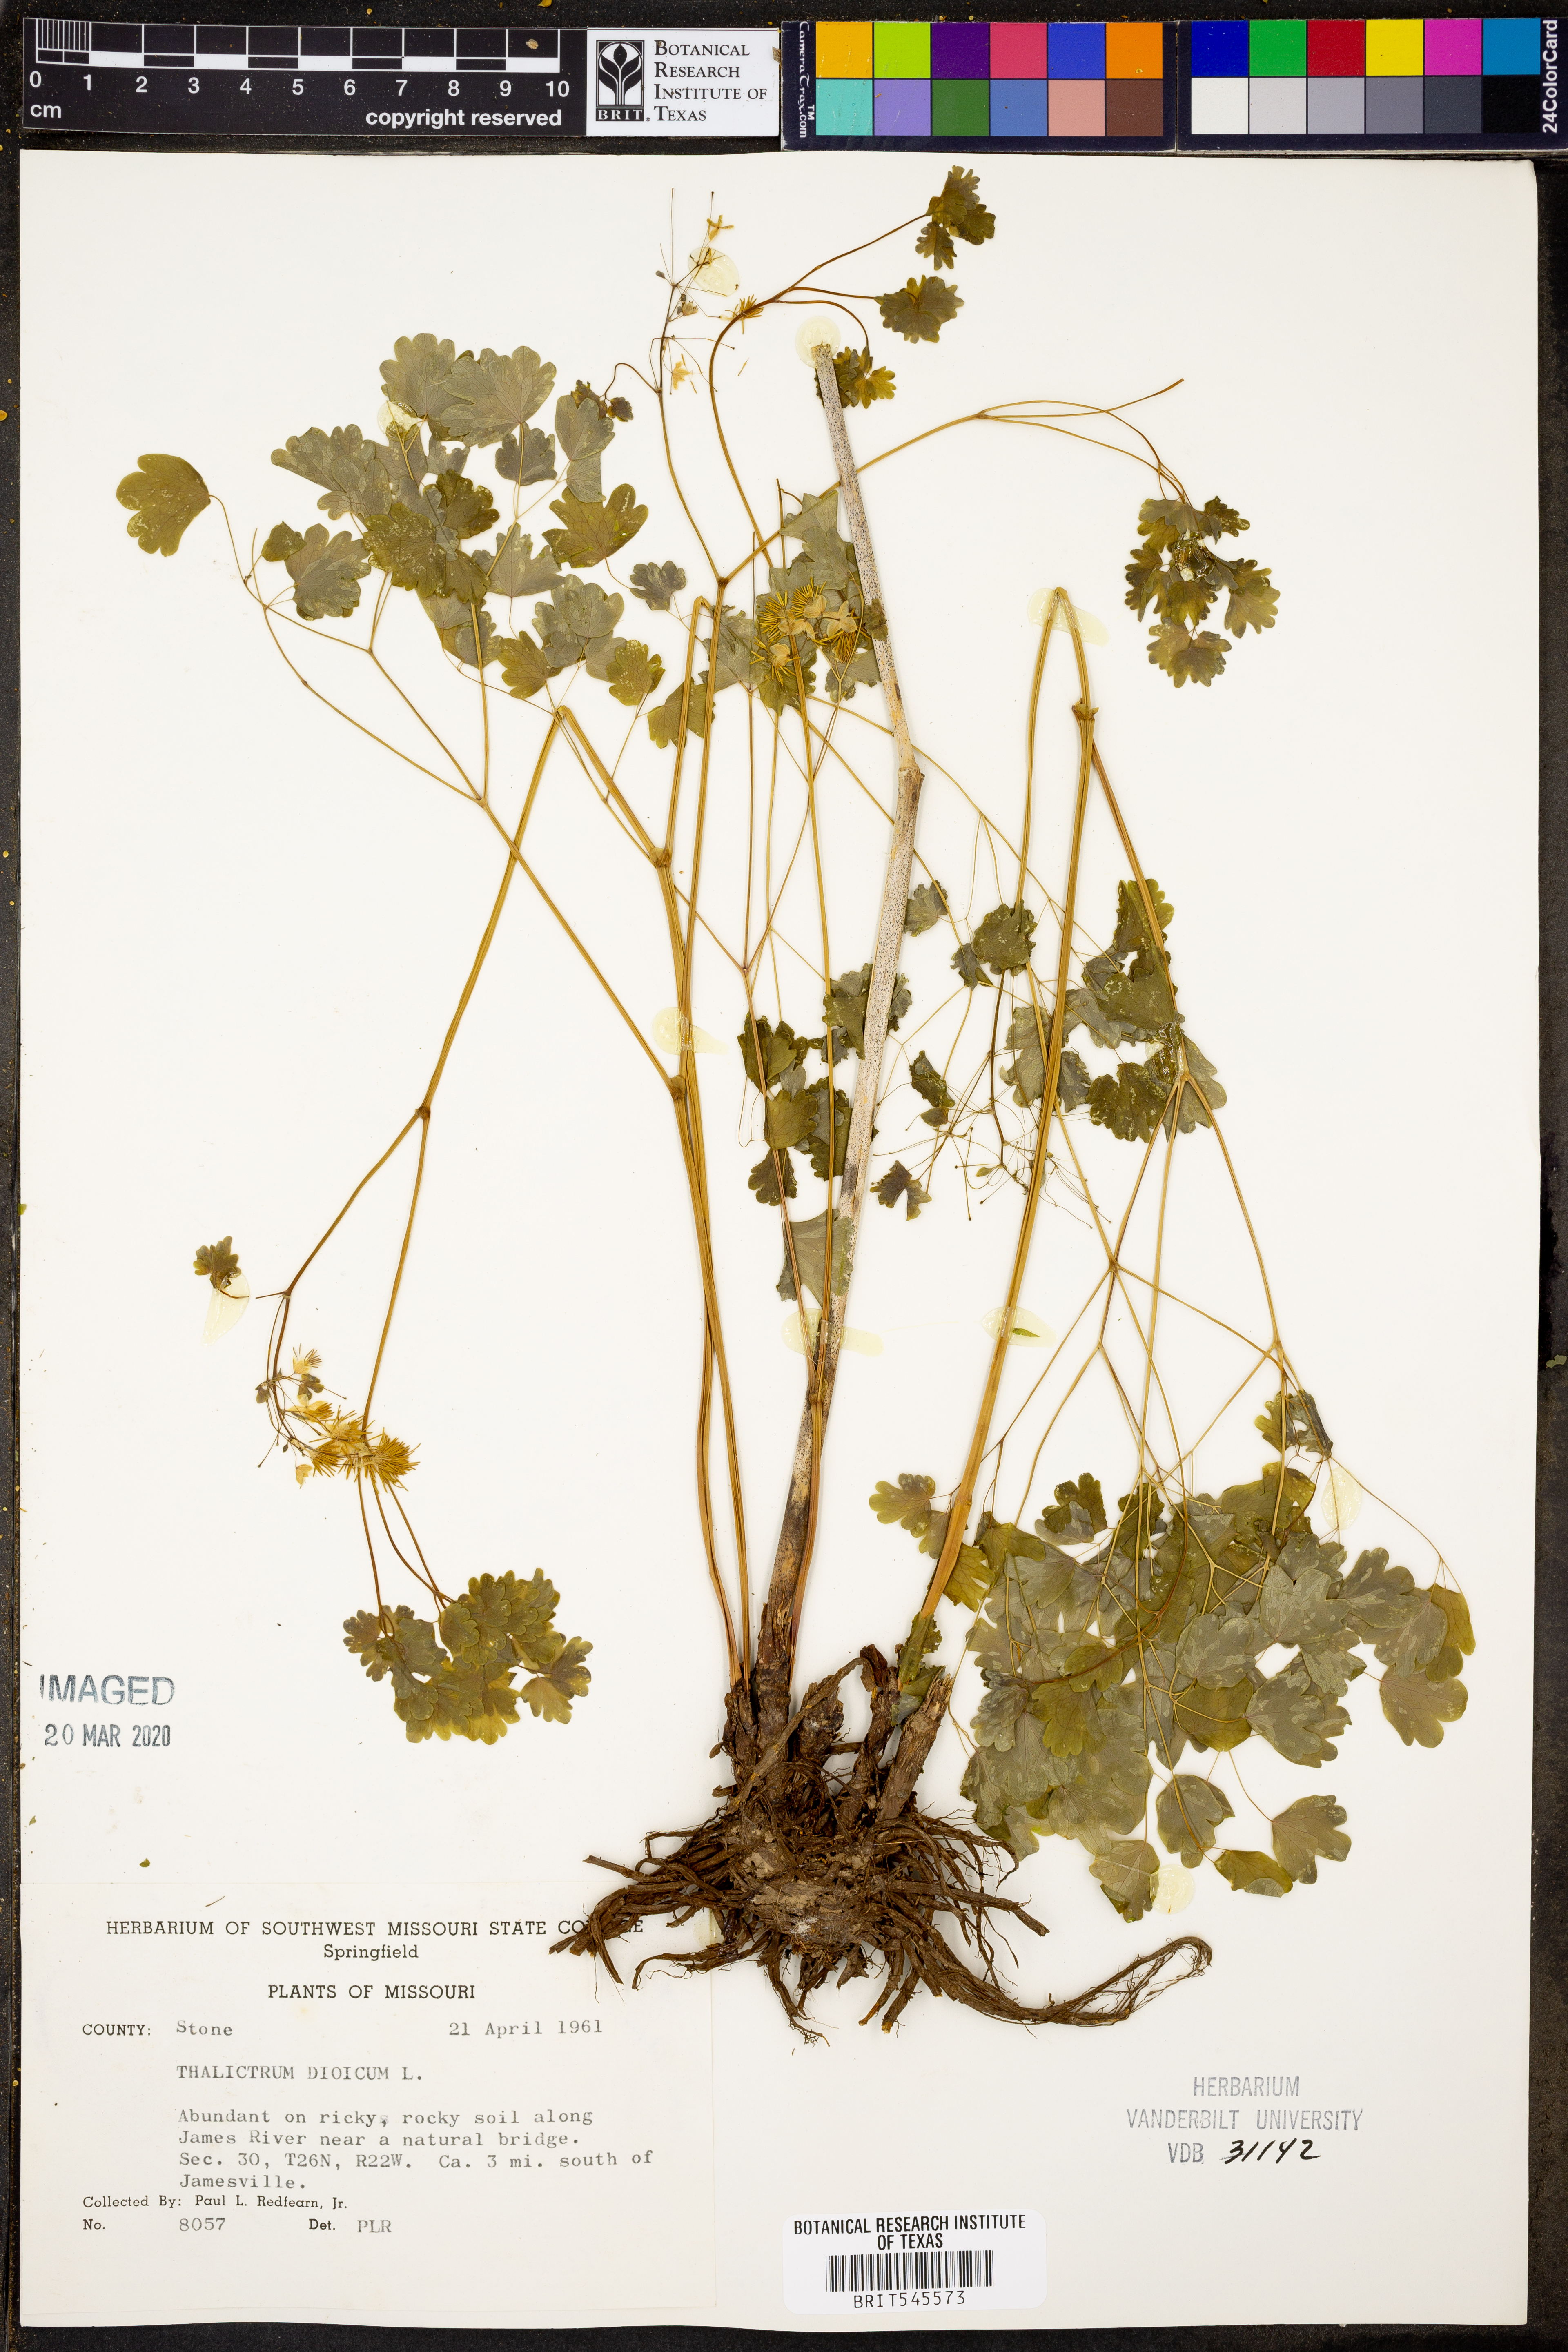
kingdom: Plantae
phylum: Tracheophyta
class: Magnoliopsida
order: Ranunculales
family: Ranunculaceae
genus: Thalictrum
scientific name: Thalictrum dioicum
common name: Early meadow-rue
